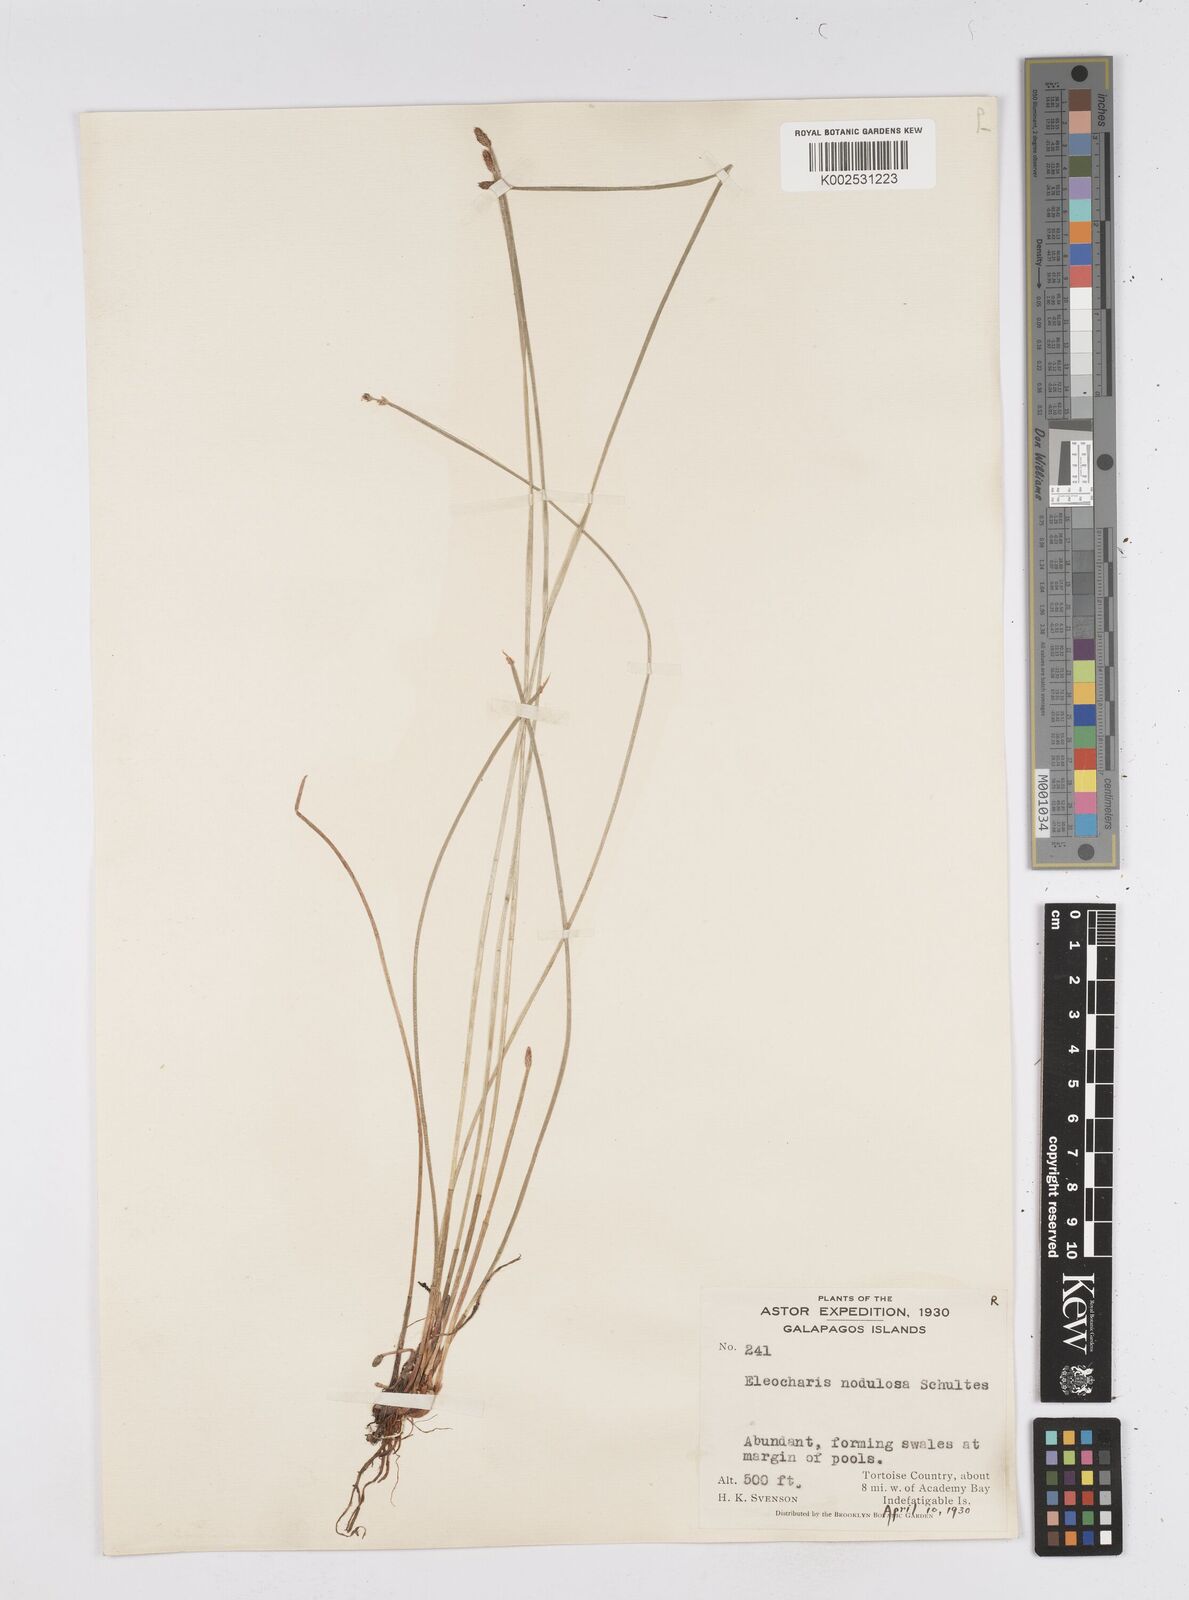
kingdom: Plantae
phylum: Tracheophyta
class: Liliopsida
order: Poales
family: Cyperaceae
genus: Eleocharis
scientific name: Eleocharis montana
